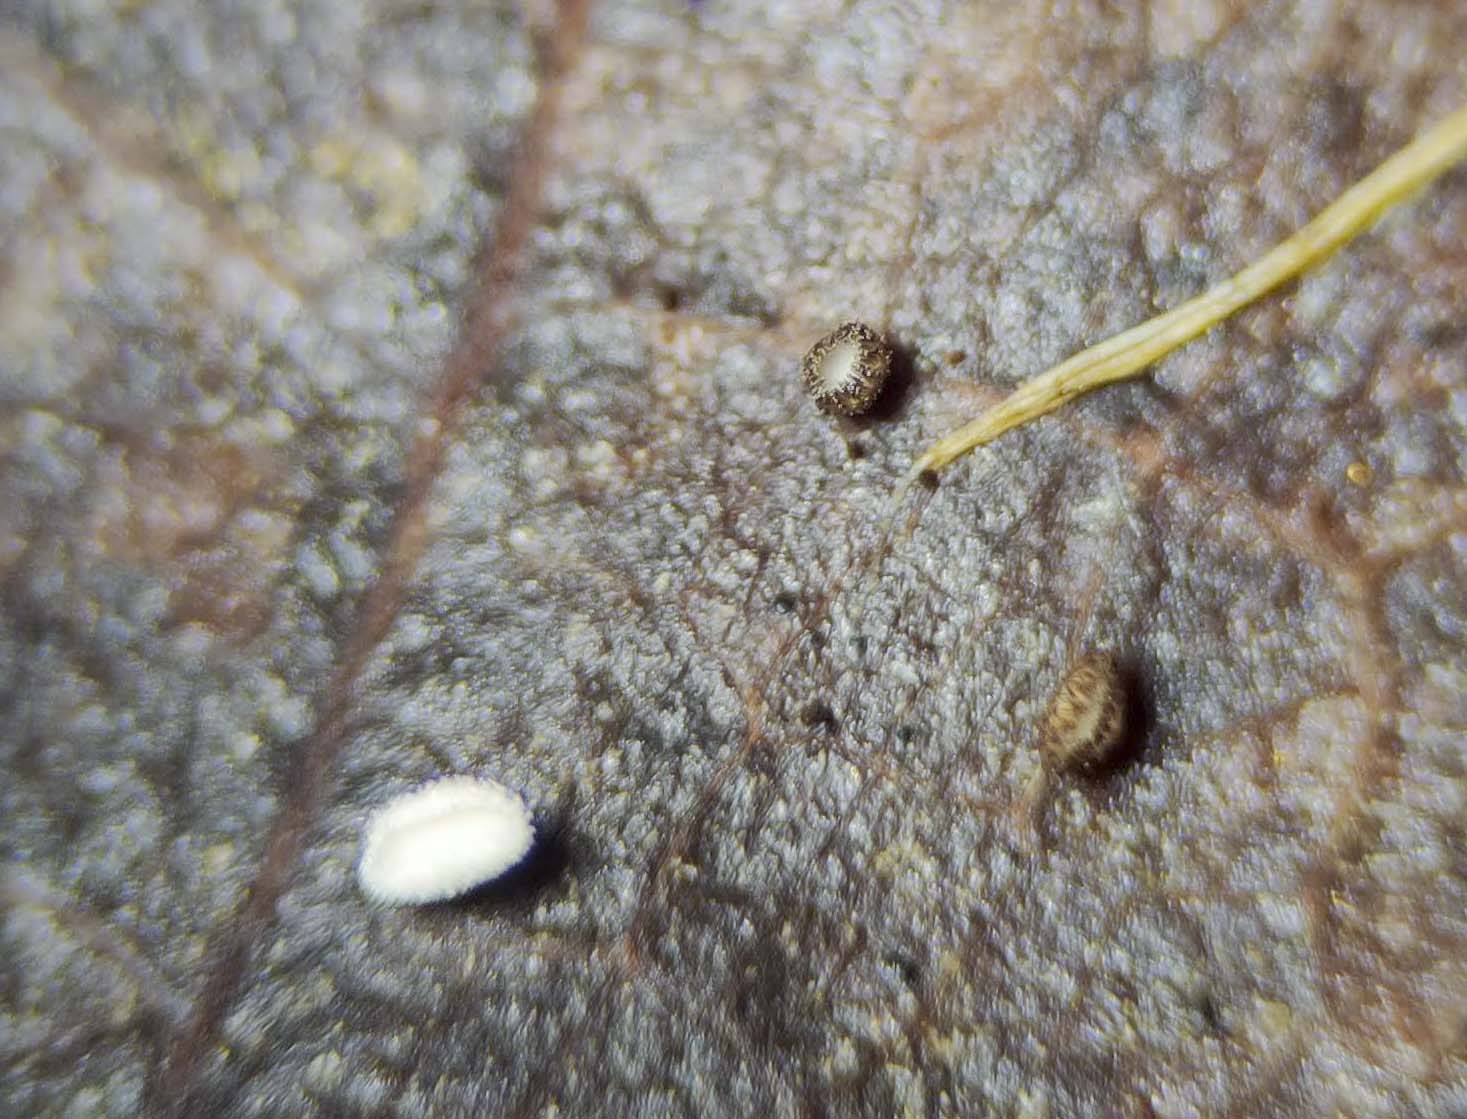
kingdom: Fungi
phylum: Ascomycota
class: Leotiomycetes
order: Helotiales
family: Lachnaceae
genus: Brunnipila
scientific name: Brunnipila brunneola
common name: læderbrun frynseskive
